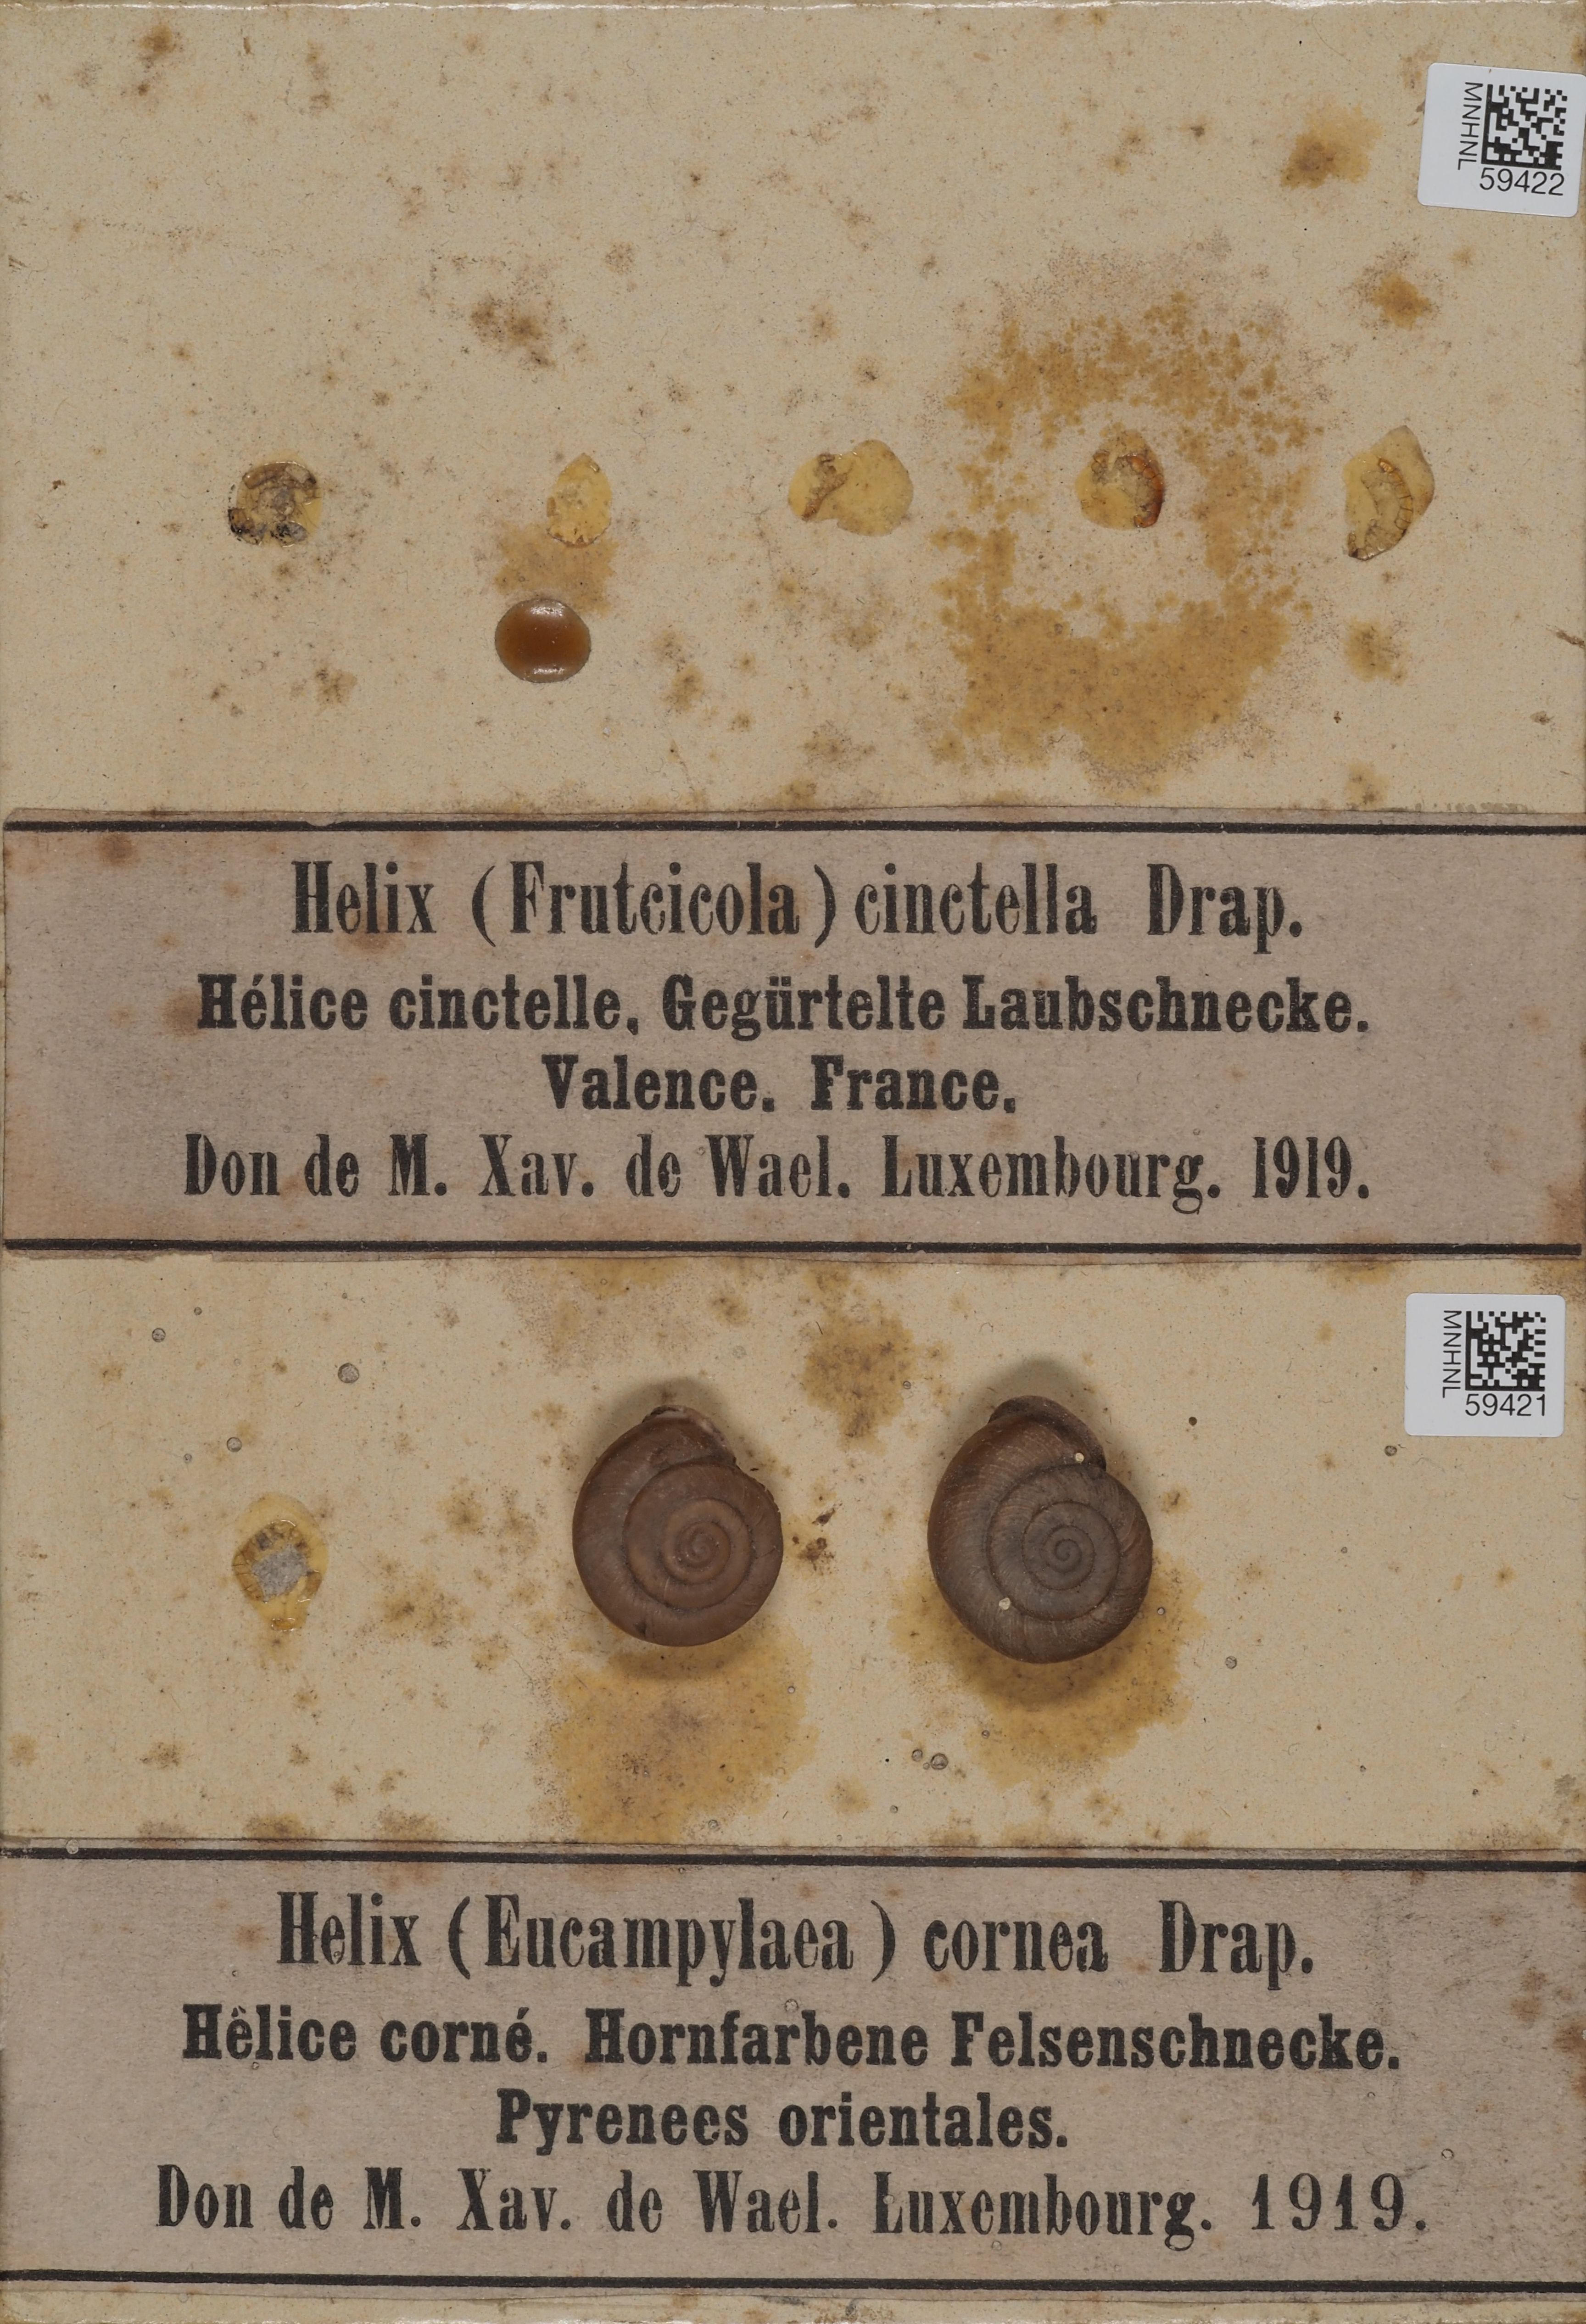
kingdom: Animalia
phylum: Mollusca
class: Gastropoda
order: Stylommatophora
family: Geomitridae
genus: Trochoidea
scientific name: Trochoidea trochoides
